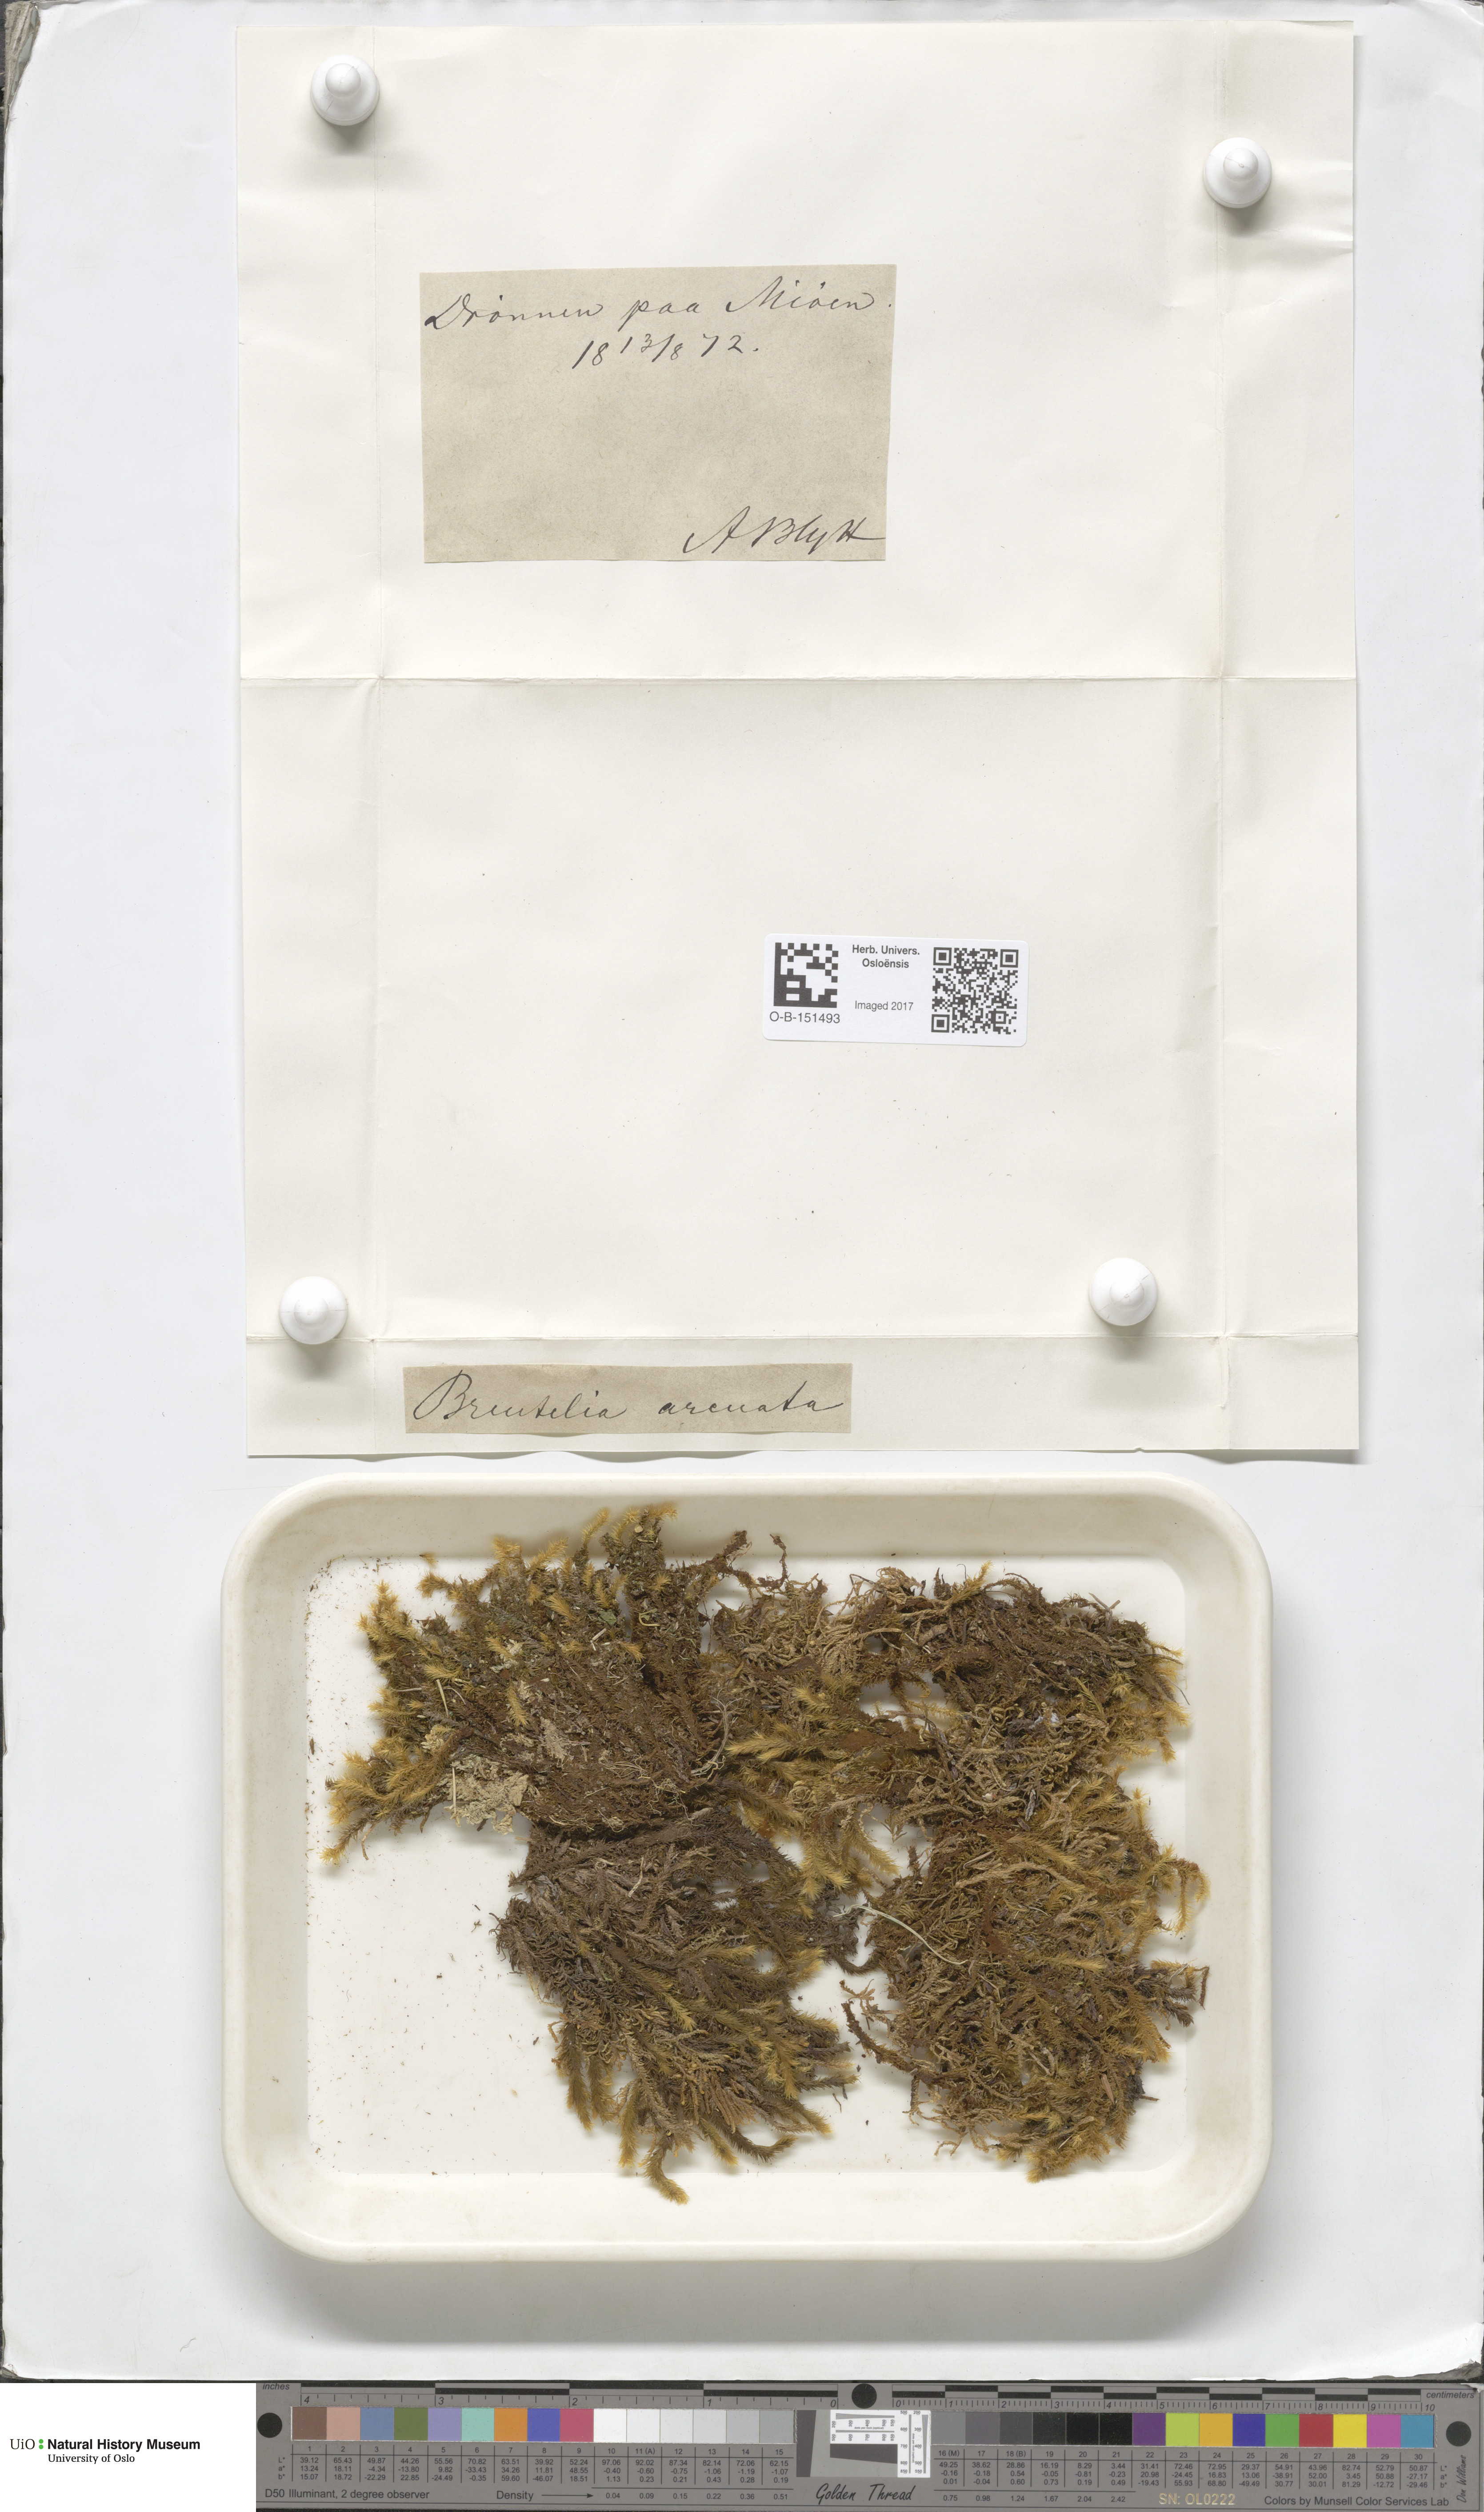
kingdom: Plantae
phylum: Bryophyta
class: Bryopsida
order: Bartramiales
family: Bartramiaceae
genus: Breutelia
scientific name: Breutelia chrysocoma
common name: Bottle-brush moss
